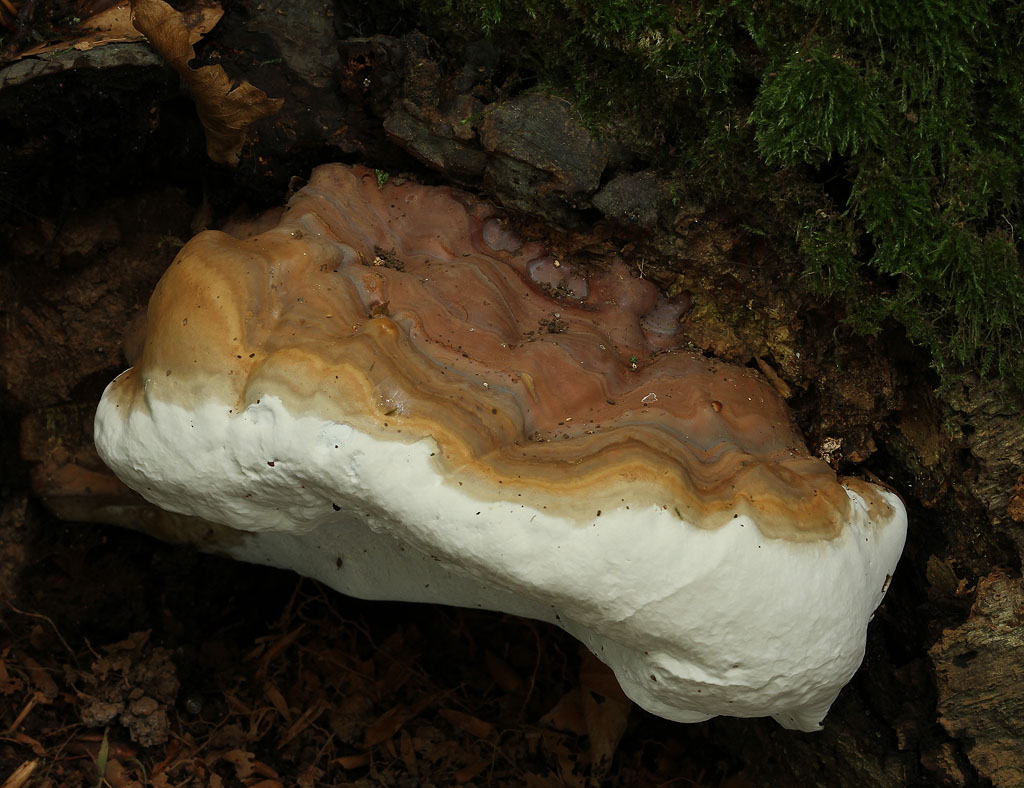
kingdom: Fungi
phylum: Basidiomycota
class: Agaricomycetes
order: Polyporales
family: Polyporaceae
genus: Ganoderma
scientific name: Ganoderma pfeifferi
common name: kobberrød lakporesvamp
